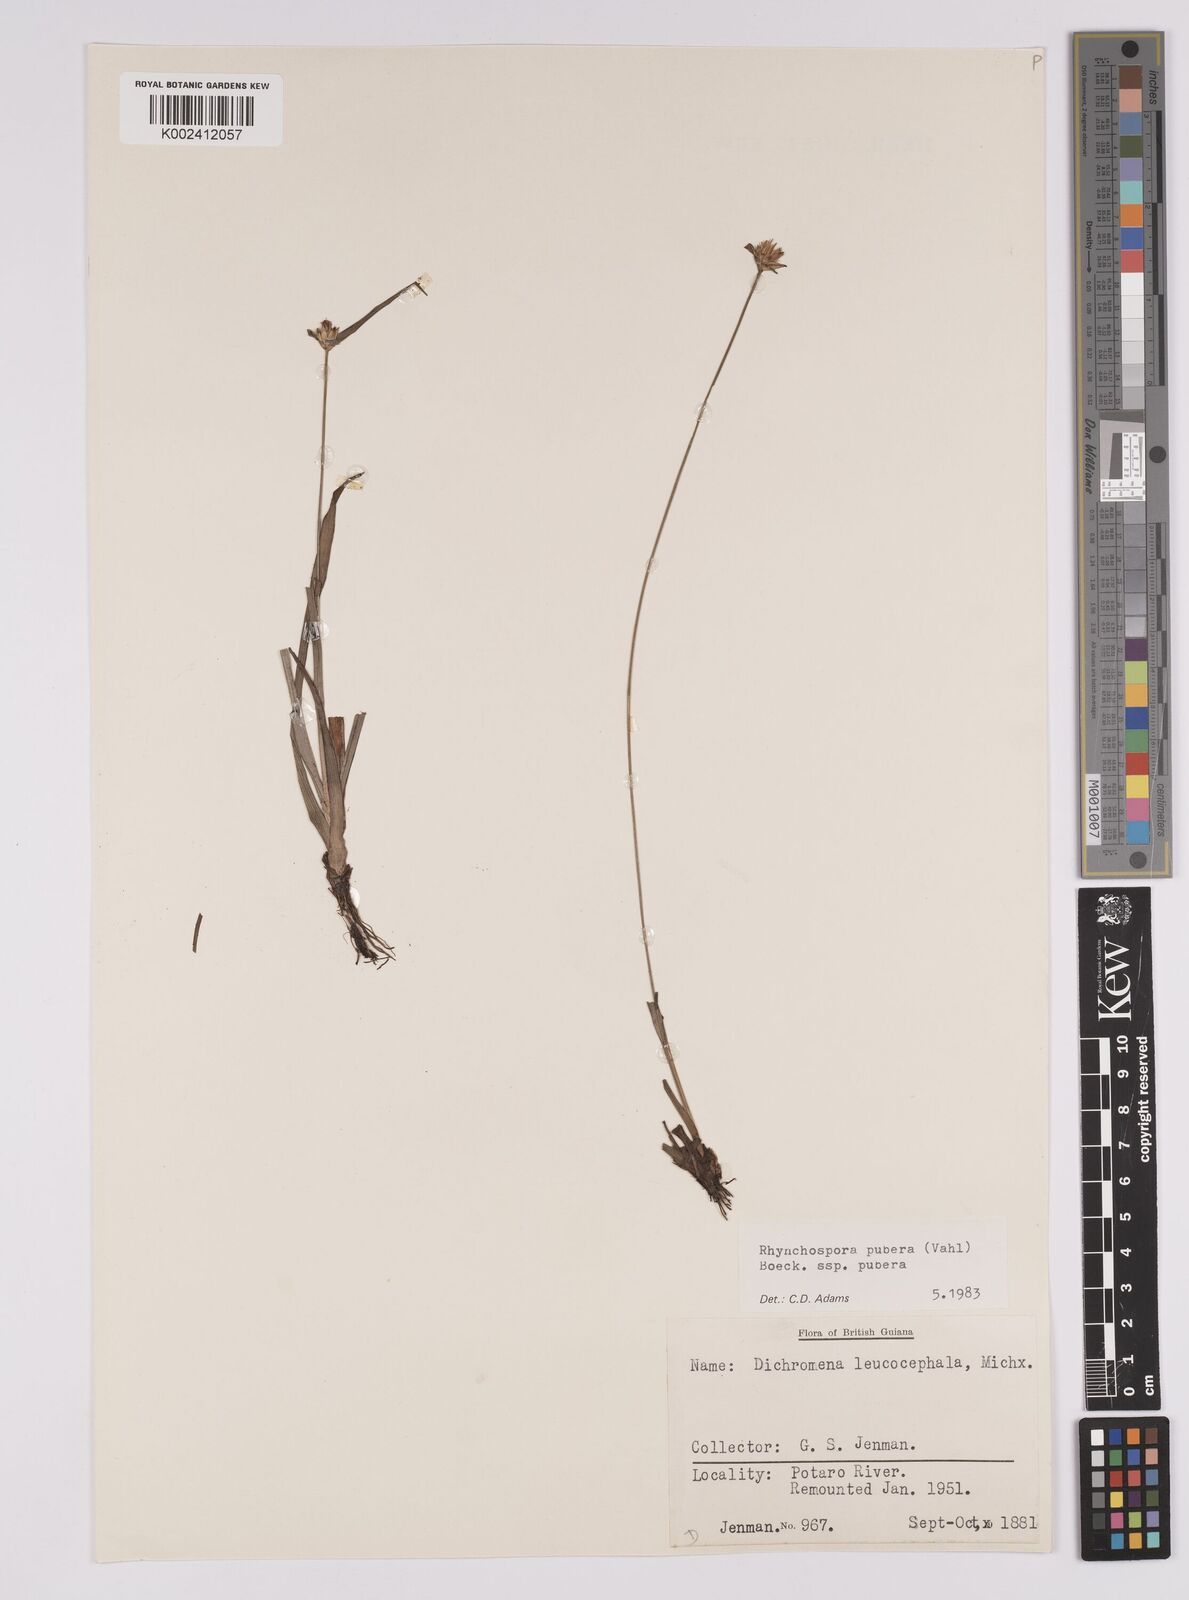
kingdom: Plantae
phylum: Tracheophyta
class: Liliopsida
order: Poales
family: Cyperaceae
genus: Rhynchospora
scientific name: Rhynchospora pubera
